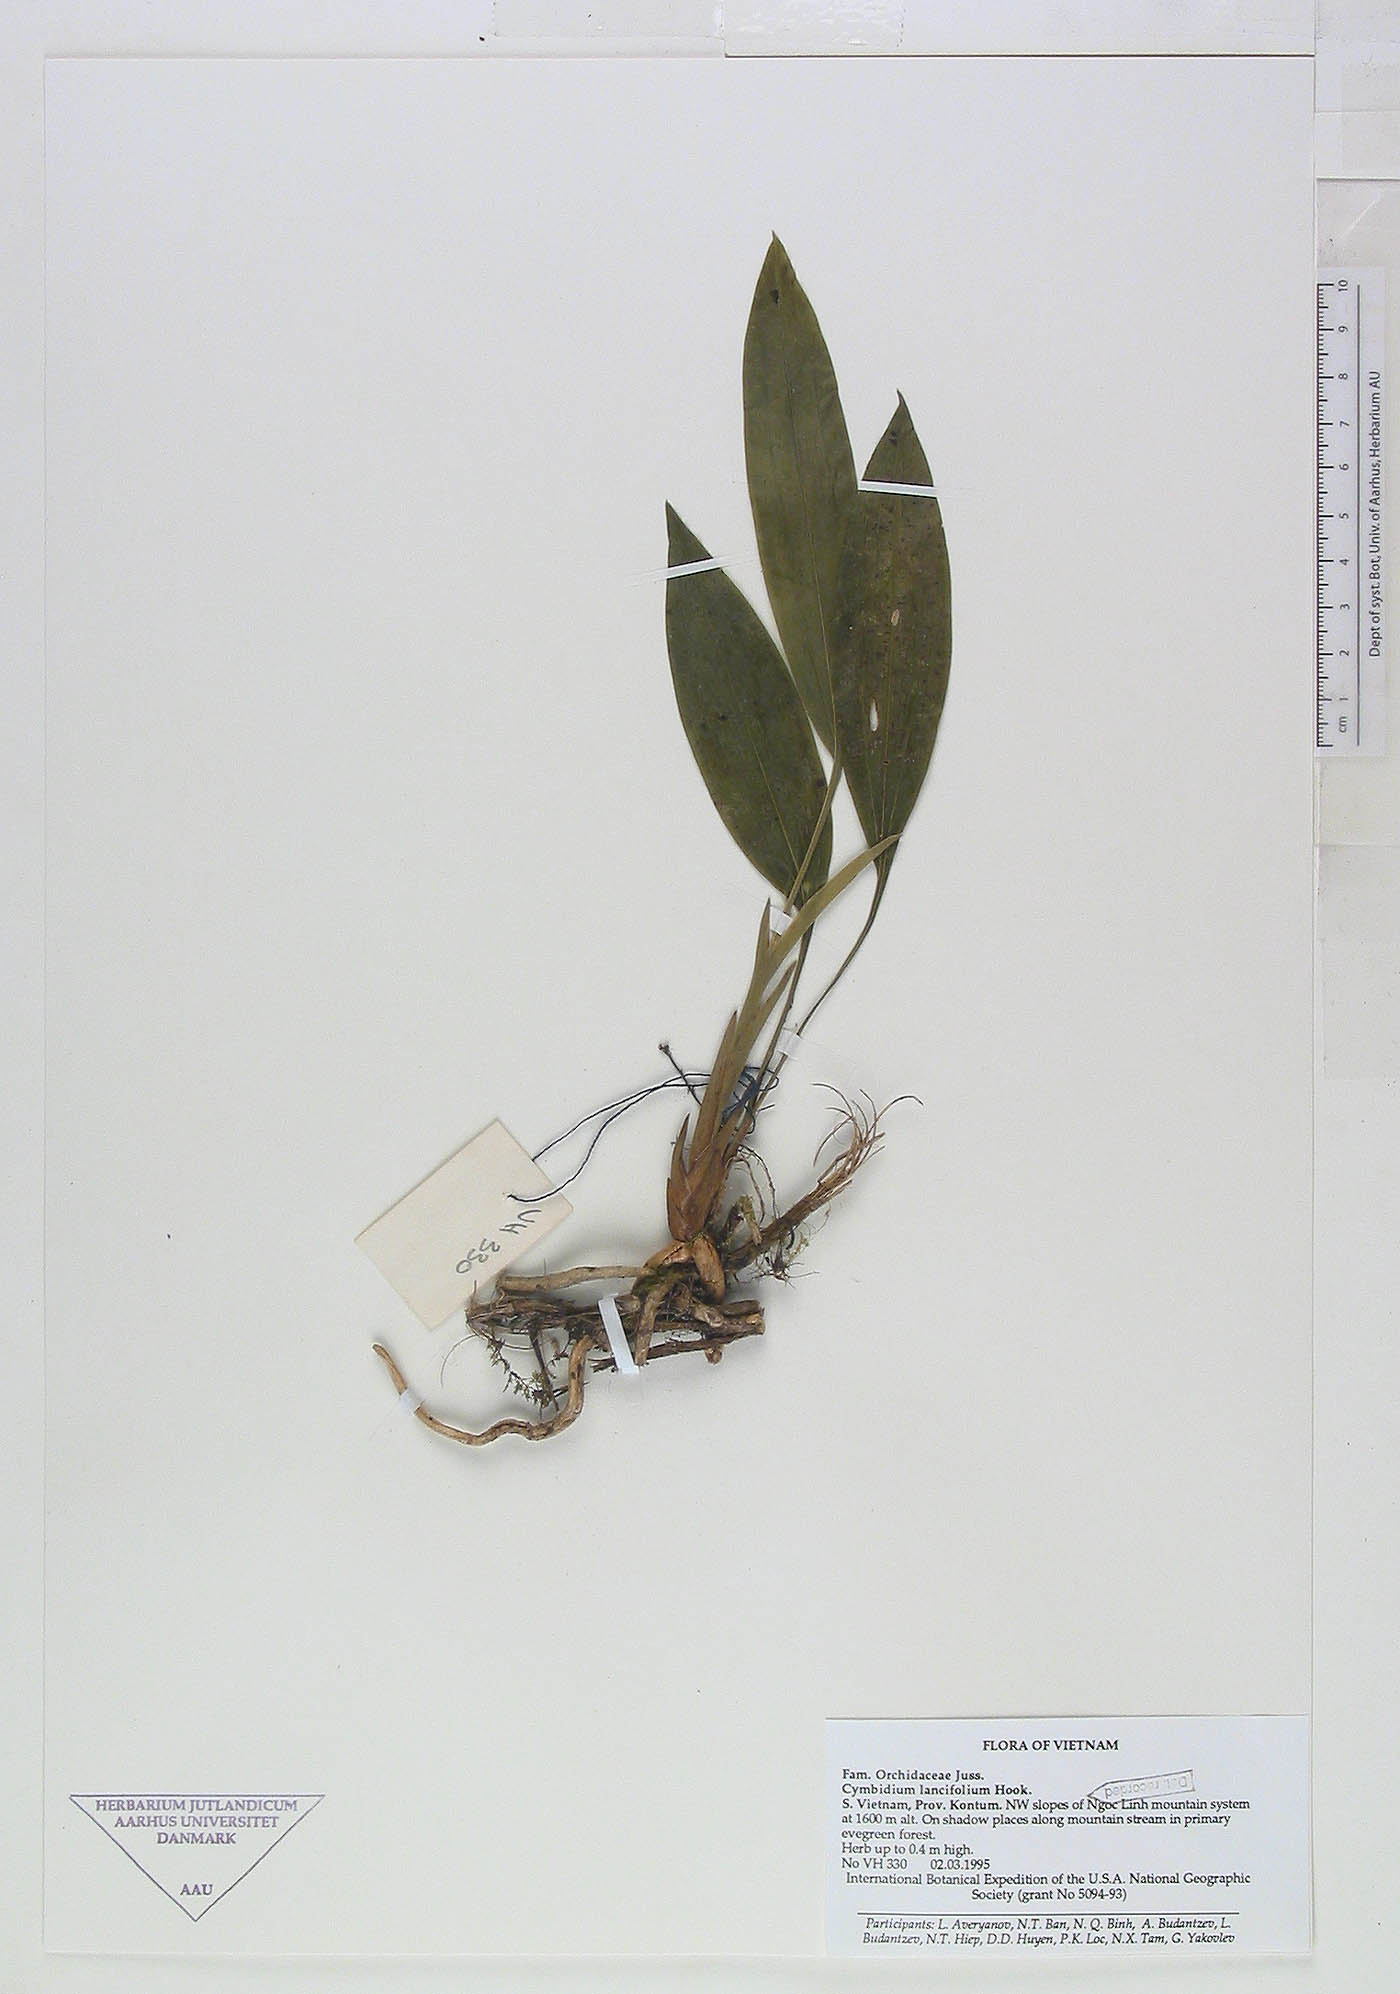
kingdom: Plantae
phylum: Tracheophyta
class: Liliopsida
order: Asparagales
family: Orchidaceae
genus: Cymbidium
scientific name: Cymbidium lancifolium
